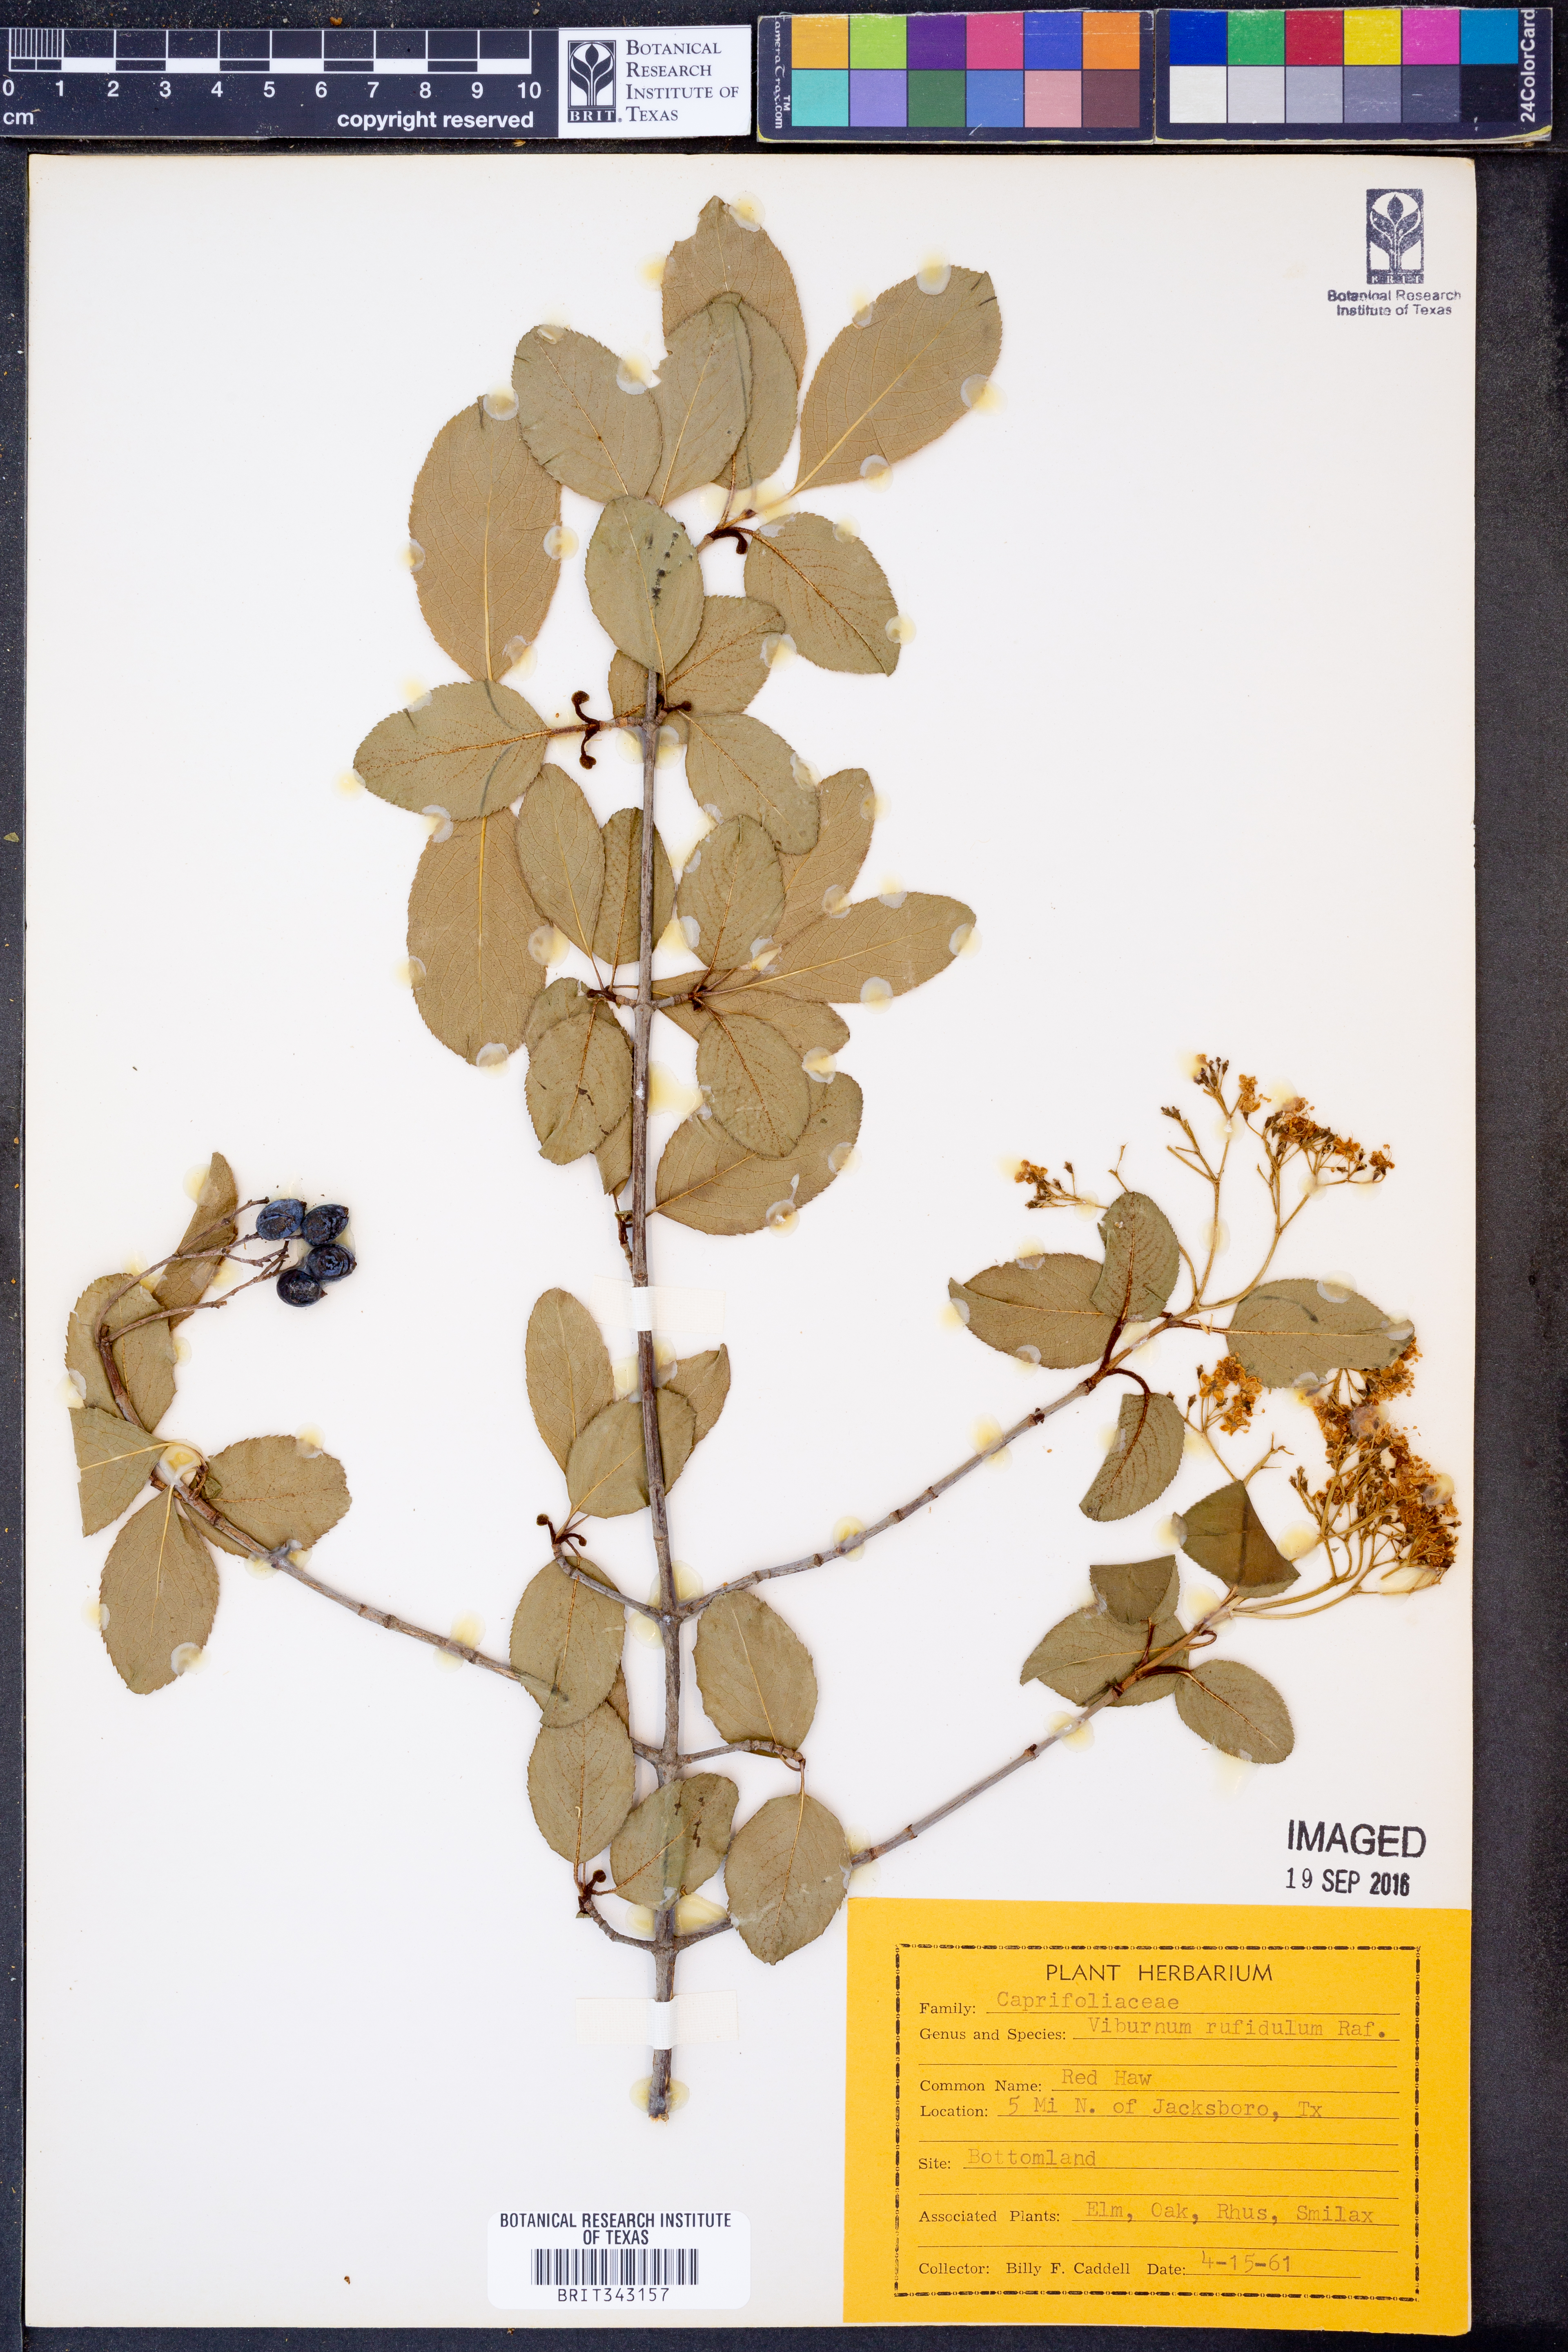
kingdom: Plantae
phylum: Tracheophyta
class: Magnoliopsida
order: Dipsacales
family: Viburnaceae
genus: Viburnum
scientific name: Viburnum rufidulum
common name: Blue haw
